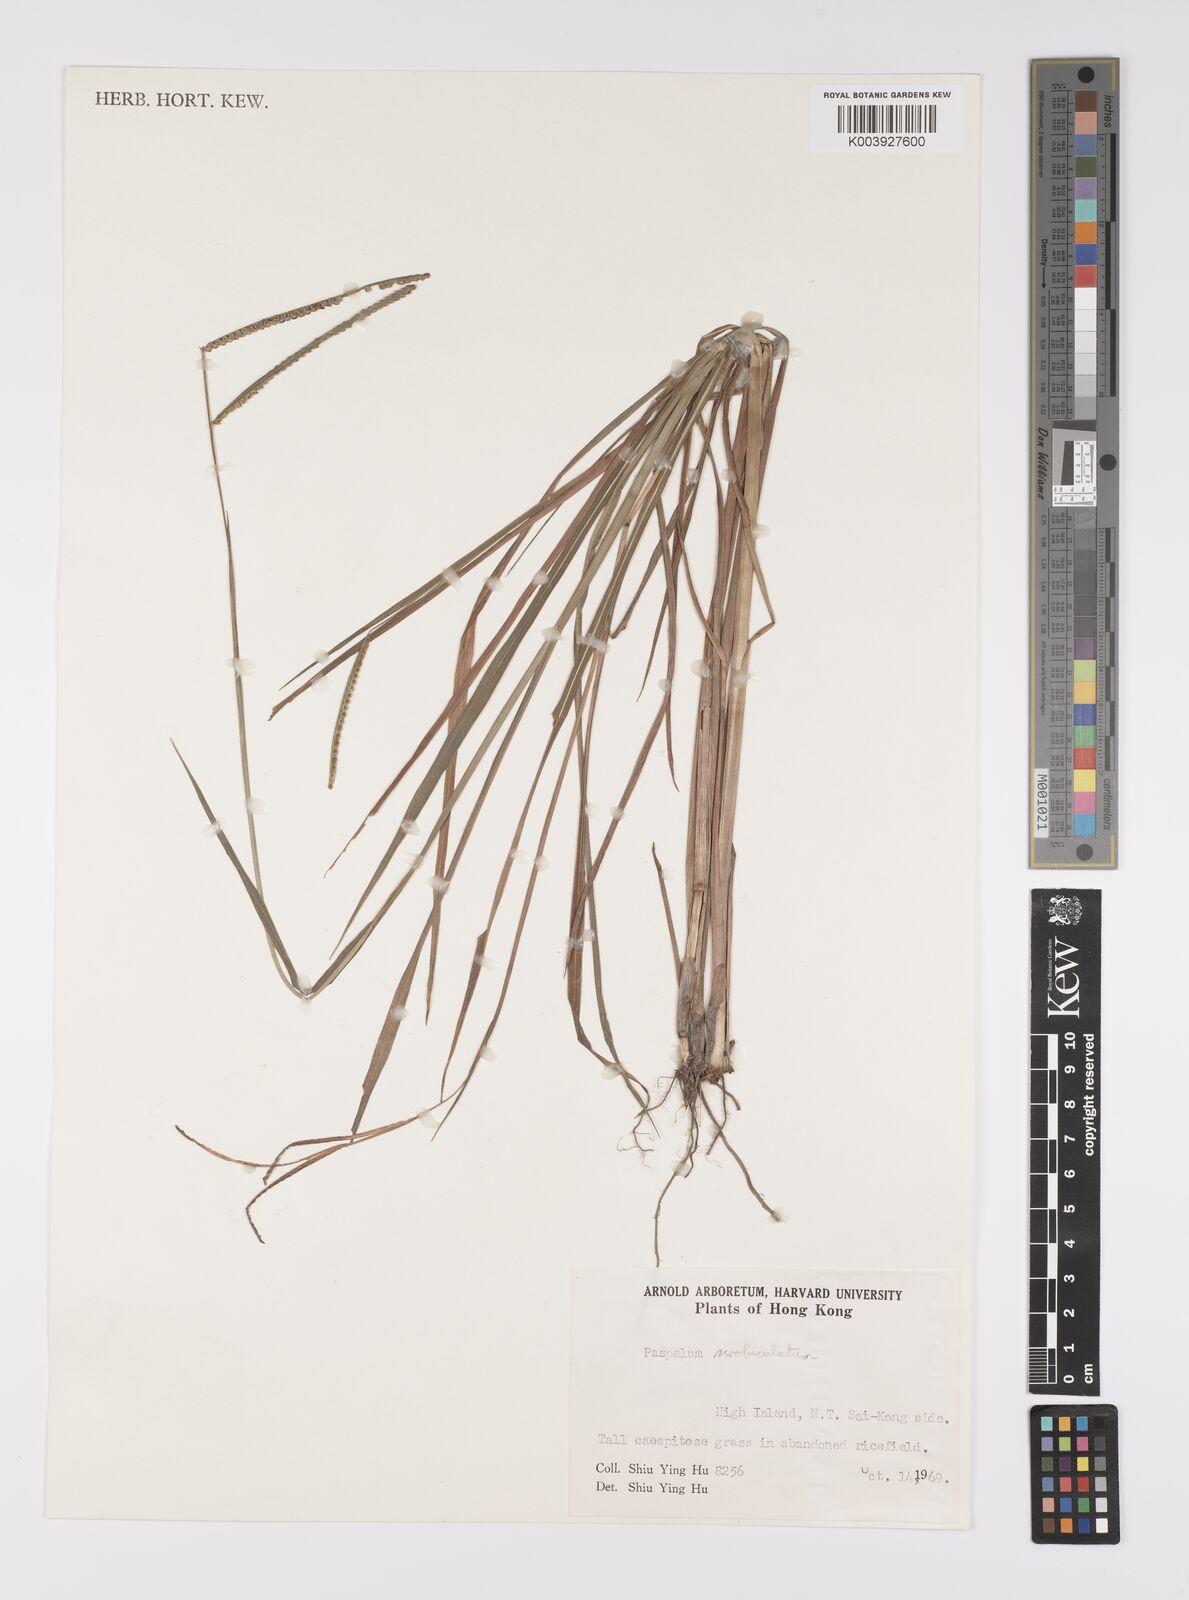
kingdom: Plantae
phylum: Tracheophyta
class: Liliopsida
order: Poales
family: Poaceae
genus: Paspalum
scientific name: Paspalum scrobiculatum
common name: Kodo millet
